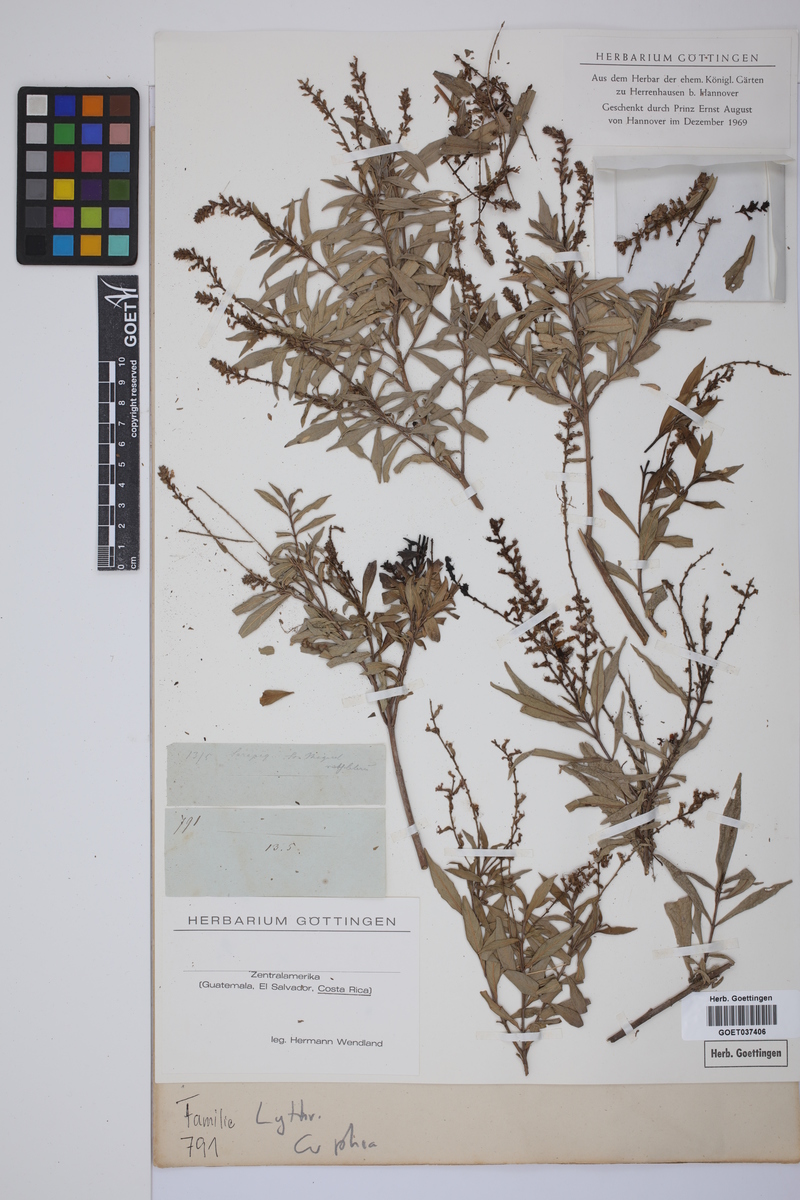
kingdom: Plantae
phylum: Tracheophyta
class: Magnoliopsida
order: Myrtales
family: Lythraceae
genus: Cuphea
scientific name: Cuphea
